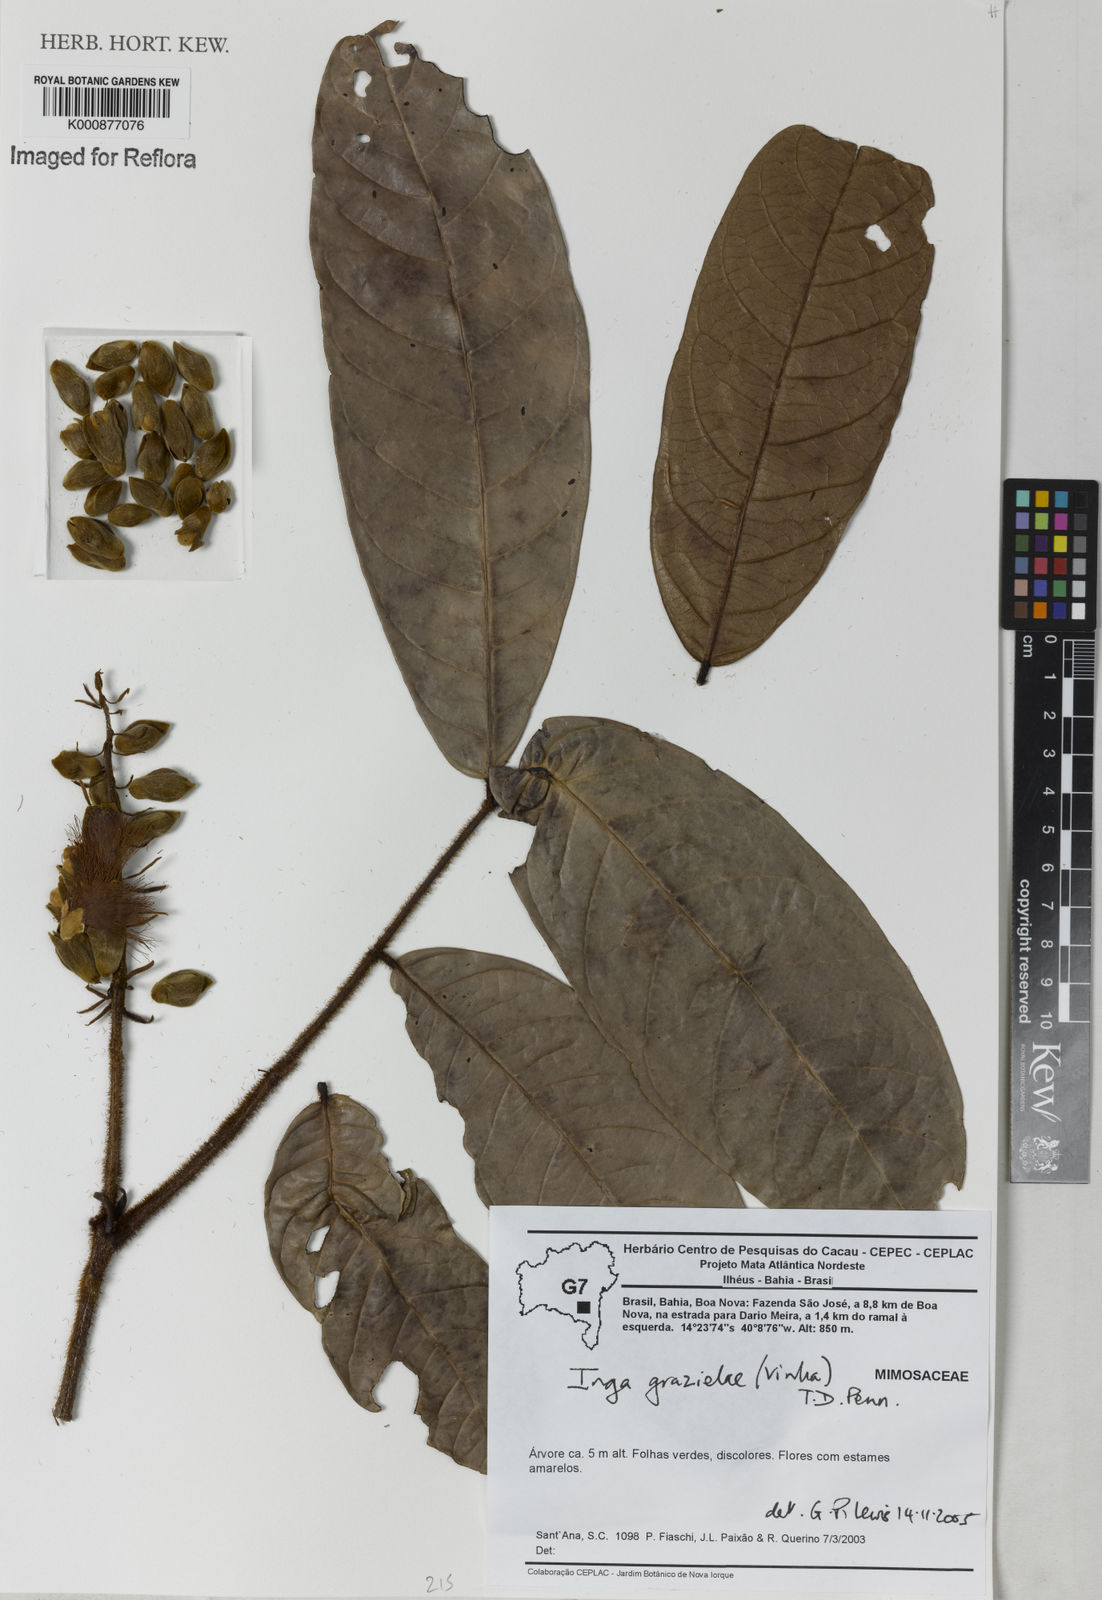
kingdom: Plantae
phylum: Tracheophyta
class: Magnoliopsida
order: Fabales
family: Fabaceae
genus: Inga
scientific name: Inga grazielae
